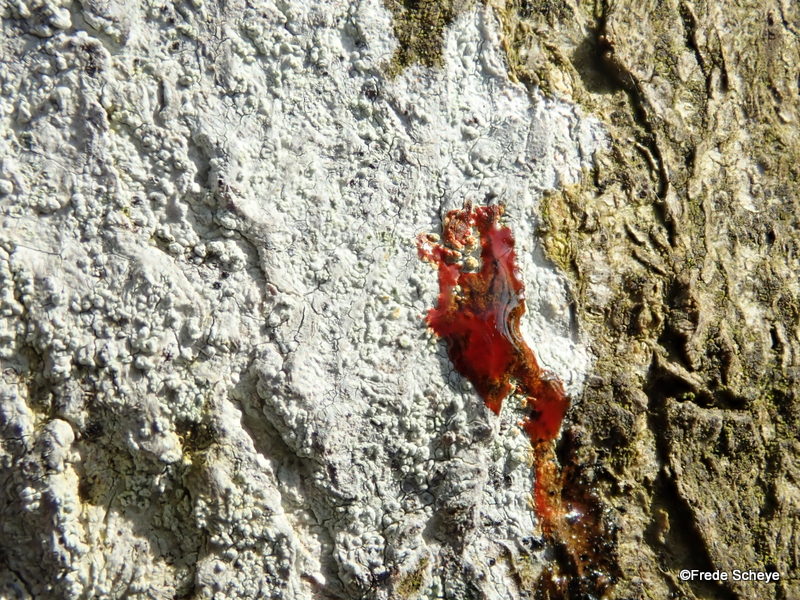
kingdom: Fungi
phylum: Ascomycota
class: Lecanoromycetes
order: Ostropales
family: Phlyctidaceae
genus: Phlyctis
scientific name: Phlyctis argena
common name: almindelig sølvlav
